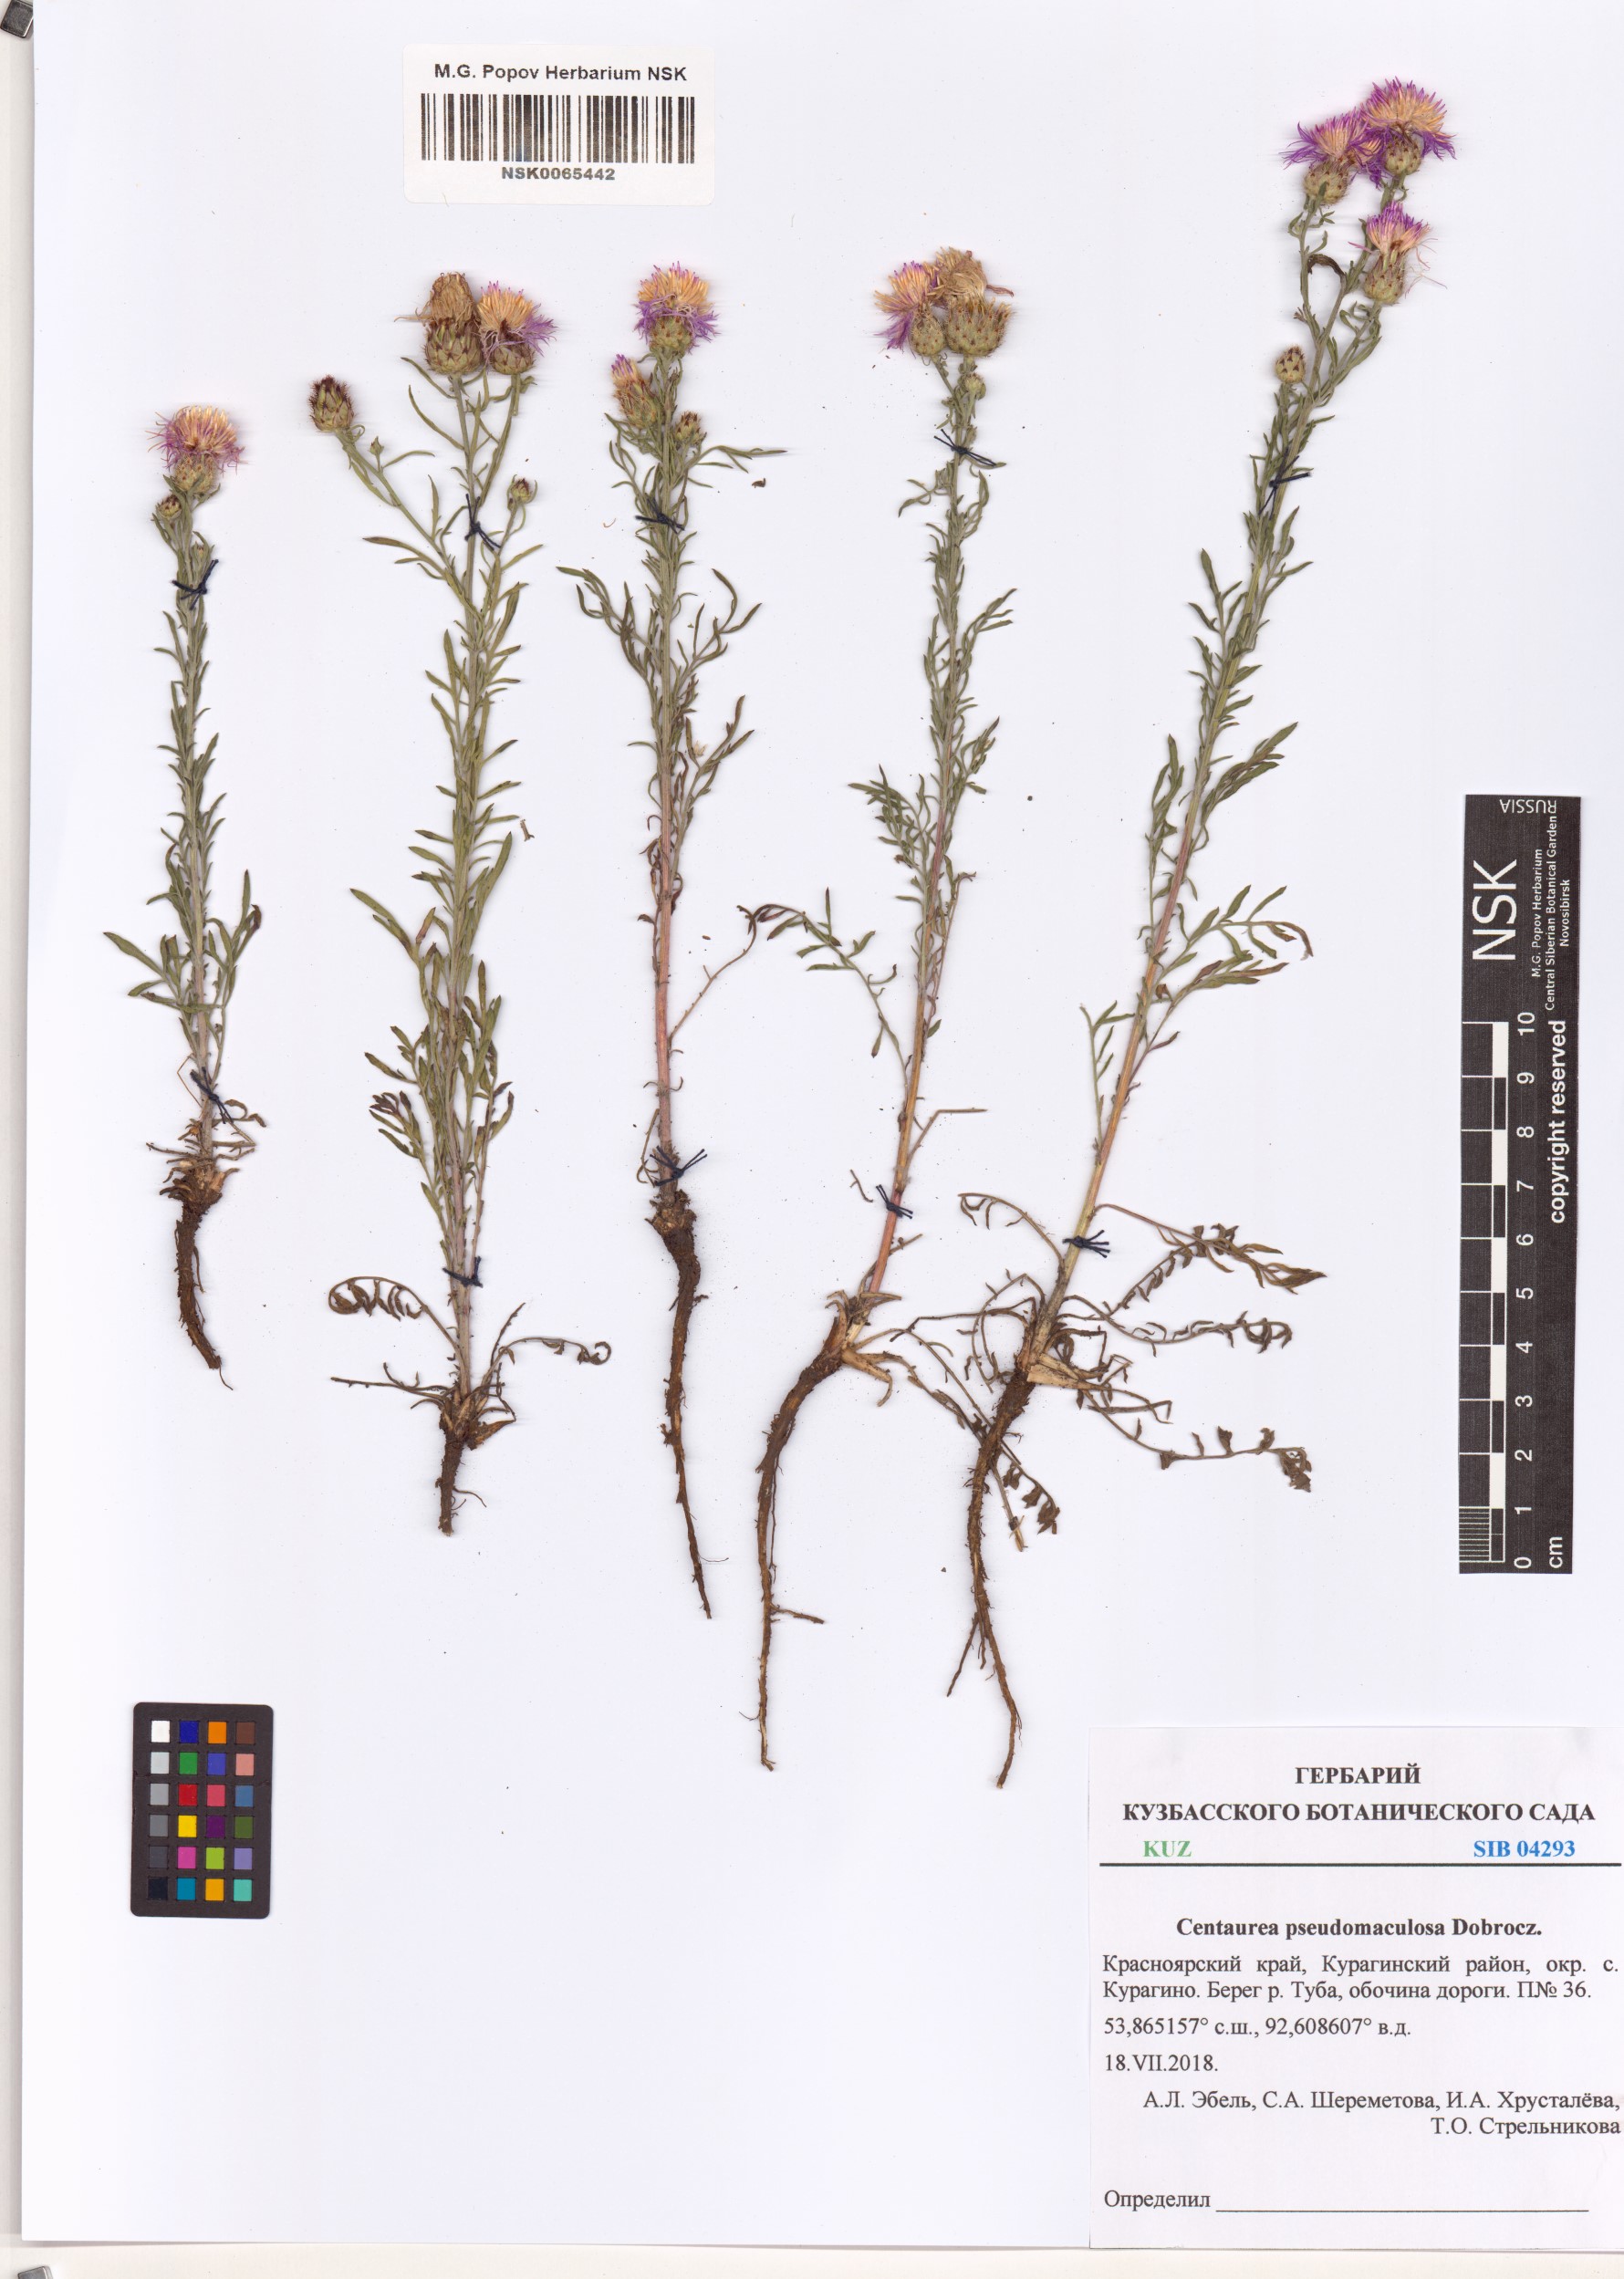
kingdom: Plantae
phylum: Tracheophyta
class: Magnoliopsida
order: Asterales
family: Asteraceae
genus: Centaurea
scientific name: Centaurea pseudomaculosa
